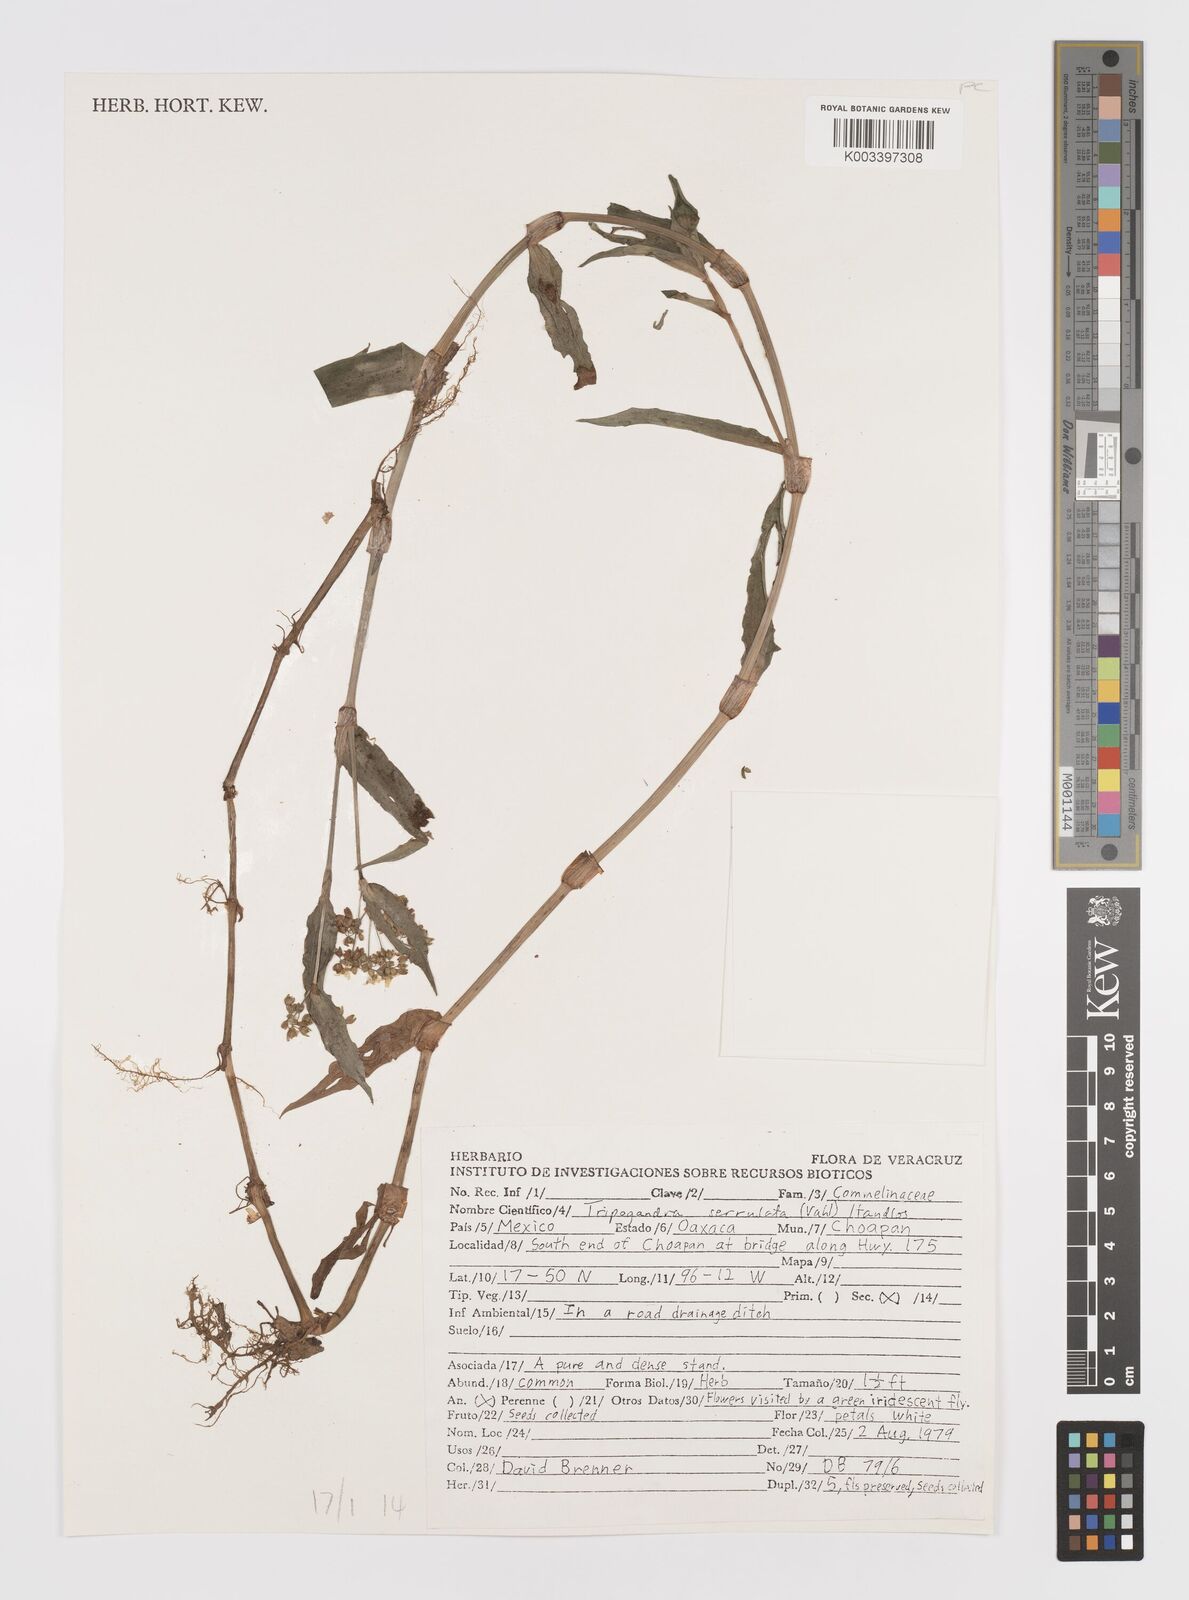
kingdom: Plantae
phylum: Tracheophyta
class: Liliopsida
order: Commelinales
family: Commelinaceae
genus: Callisia
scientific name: Callisia serrulata
